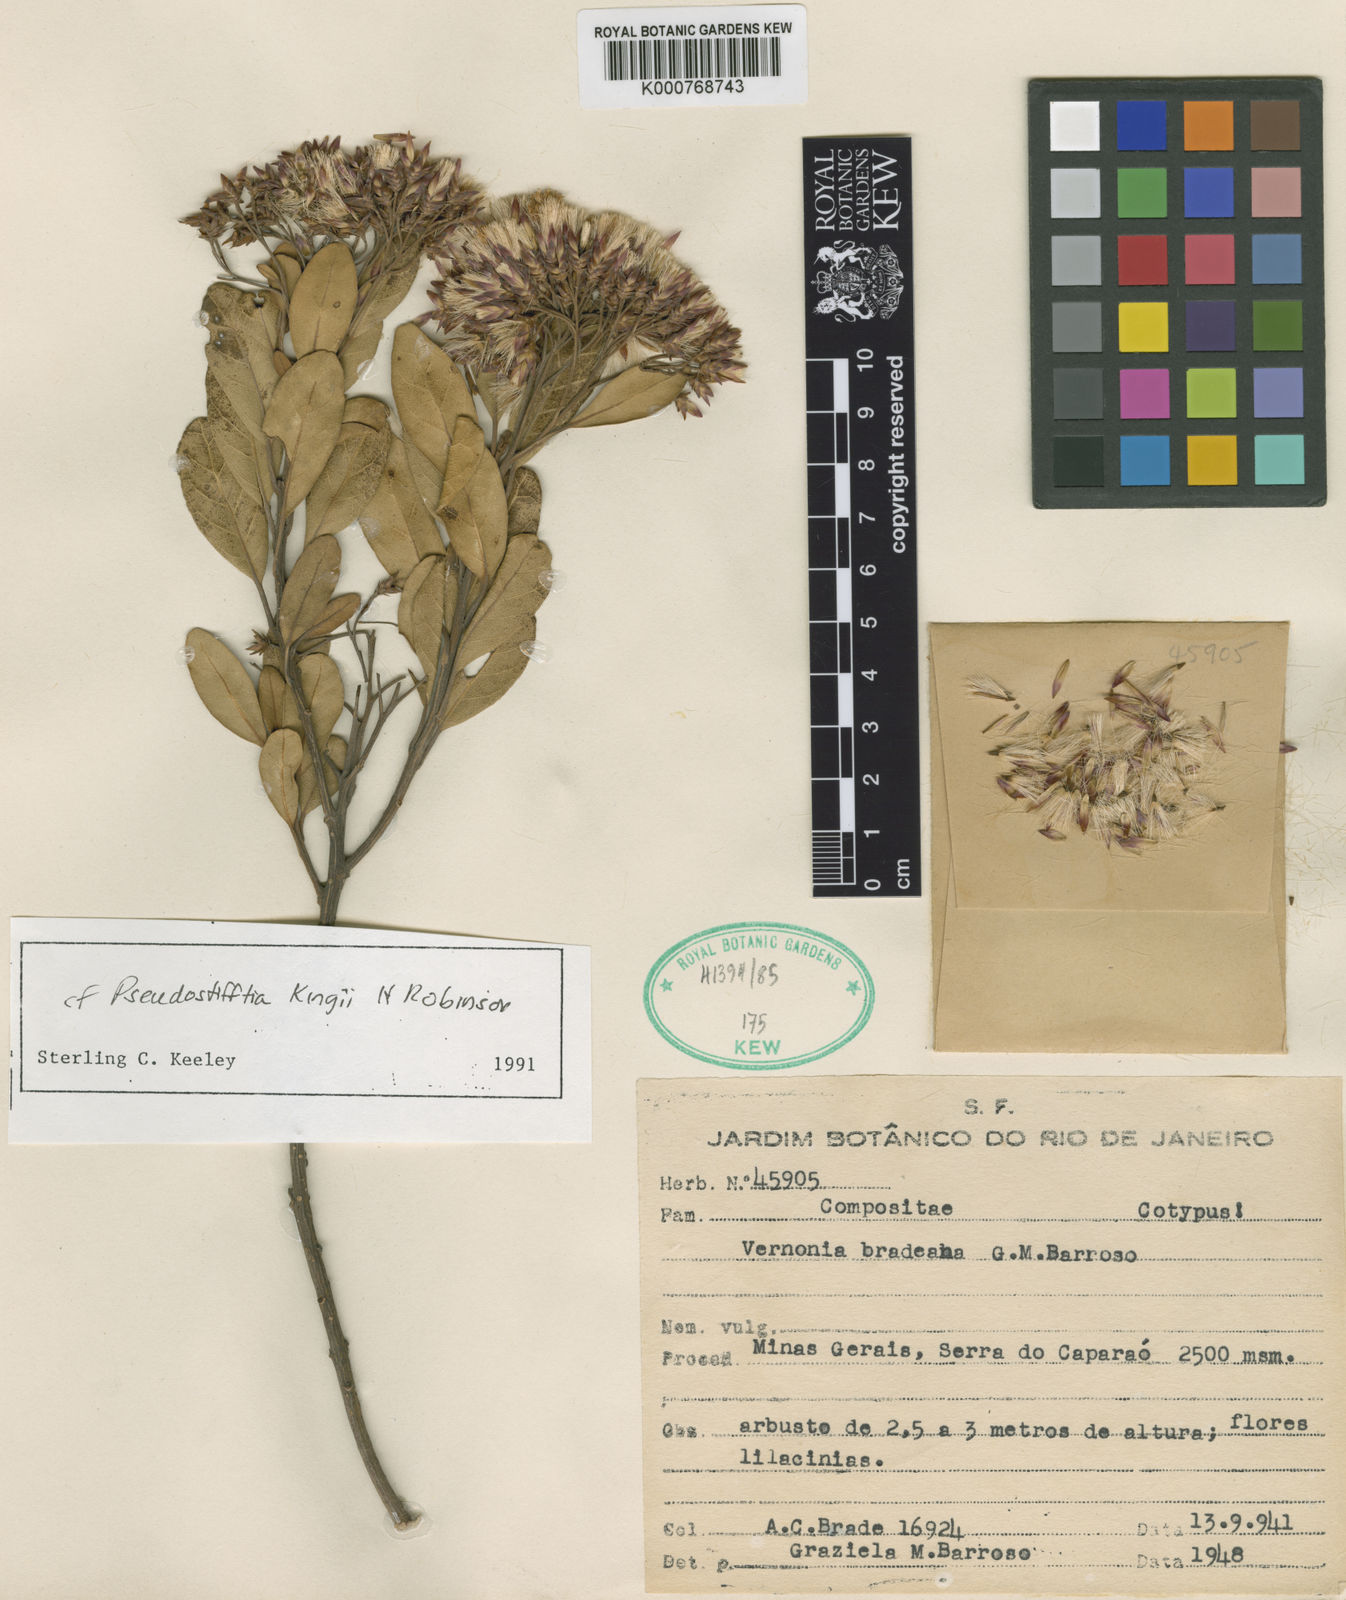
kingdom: Plantae
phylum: Tracheophyta
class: Magnoliopsida
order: Asterales
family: Asteraceae
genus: Vernonia
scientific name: Vernonia
